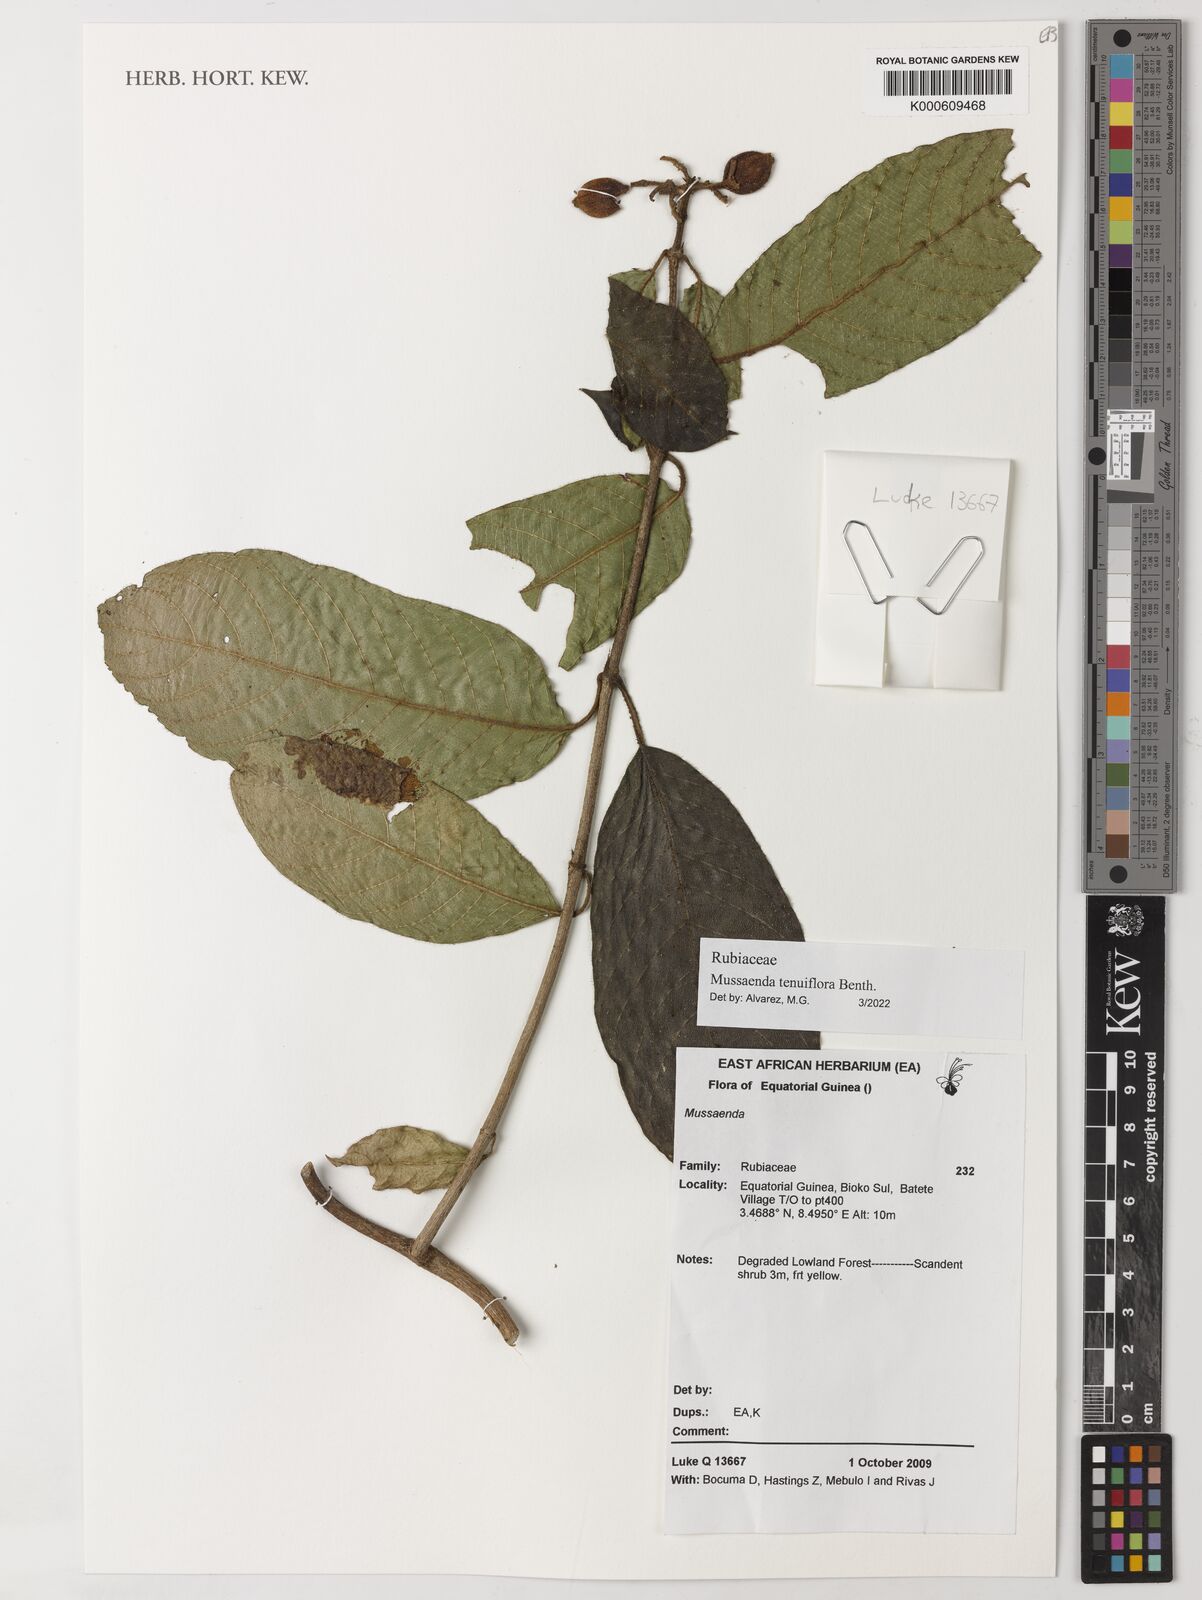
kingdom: Plantae
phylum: Tracheophyta
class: Magnoliopsida
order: Gentianales
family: Rubiaceae
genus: Mussaenda
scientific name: Mussaenda tenuiflora
